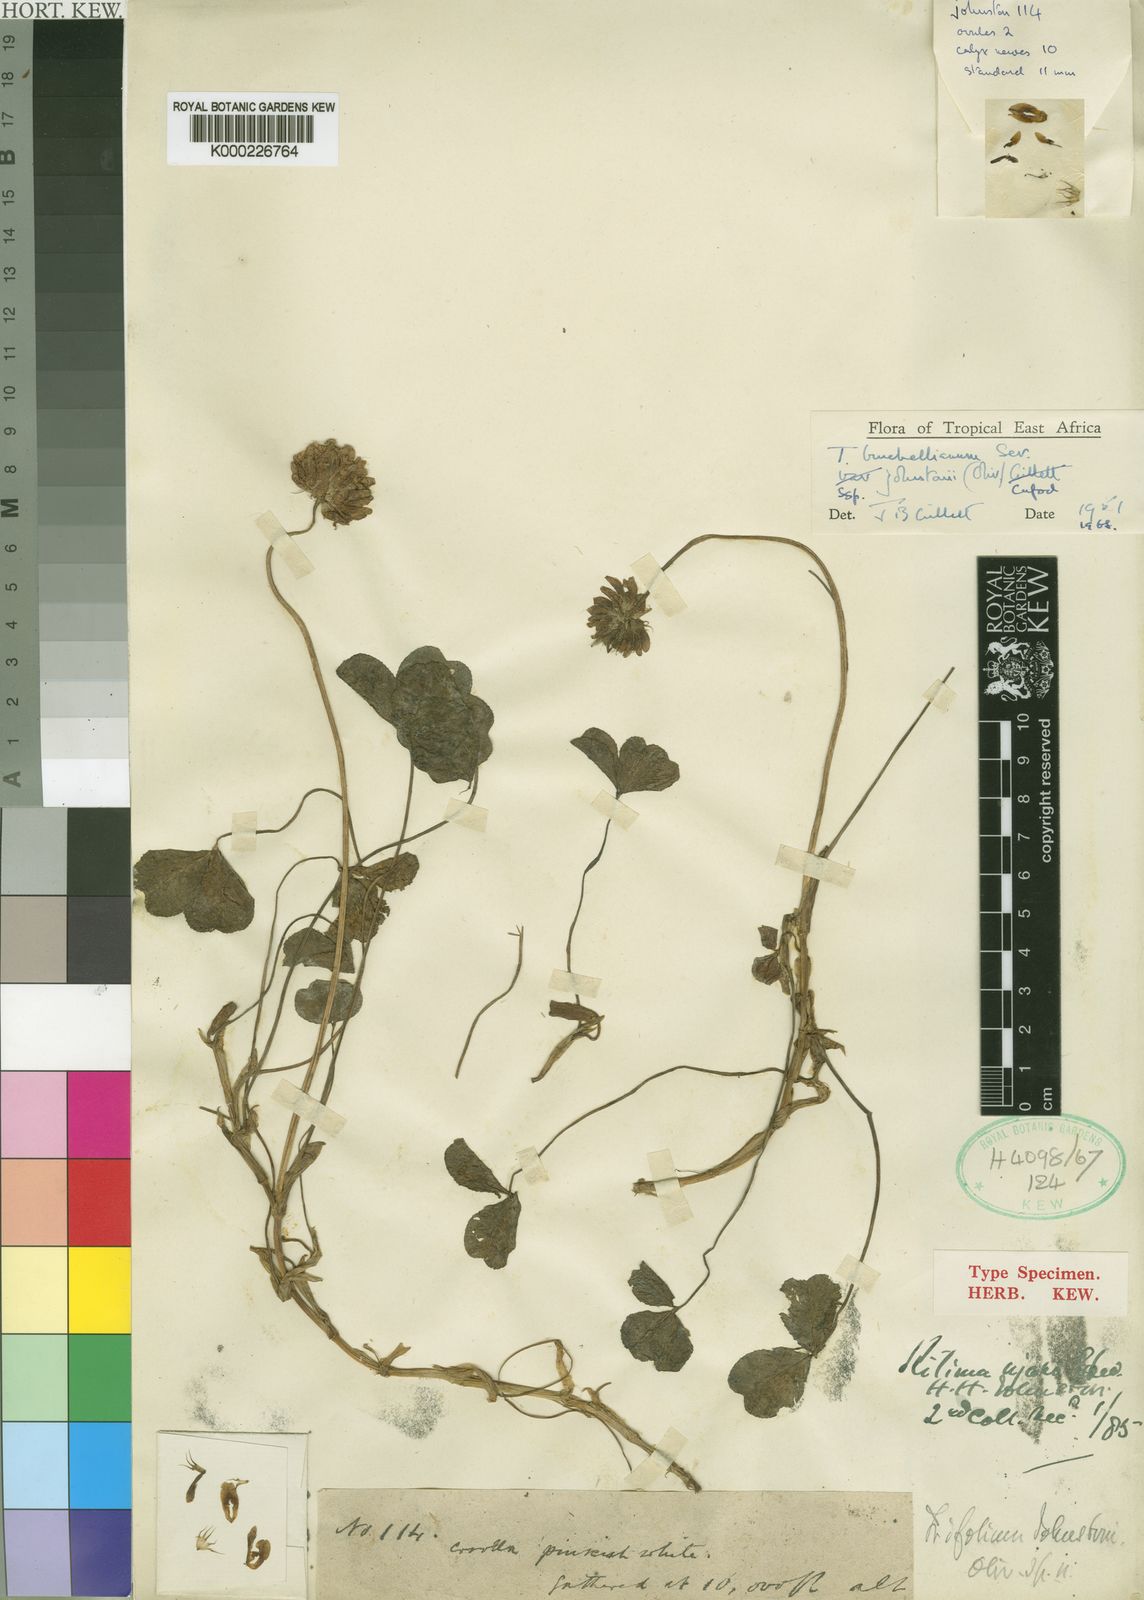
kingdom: Plantae
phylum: Tracheophyta
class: Magnoliopsida
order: Fabales
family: Fabaceae
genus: Trifolium
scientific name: Trifolium burchellianum
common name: Burchell's clover
